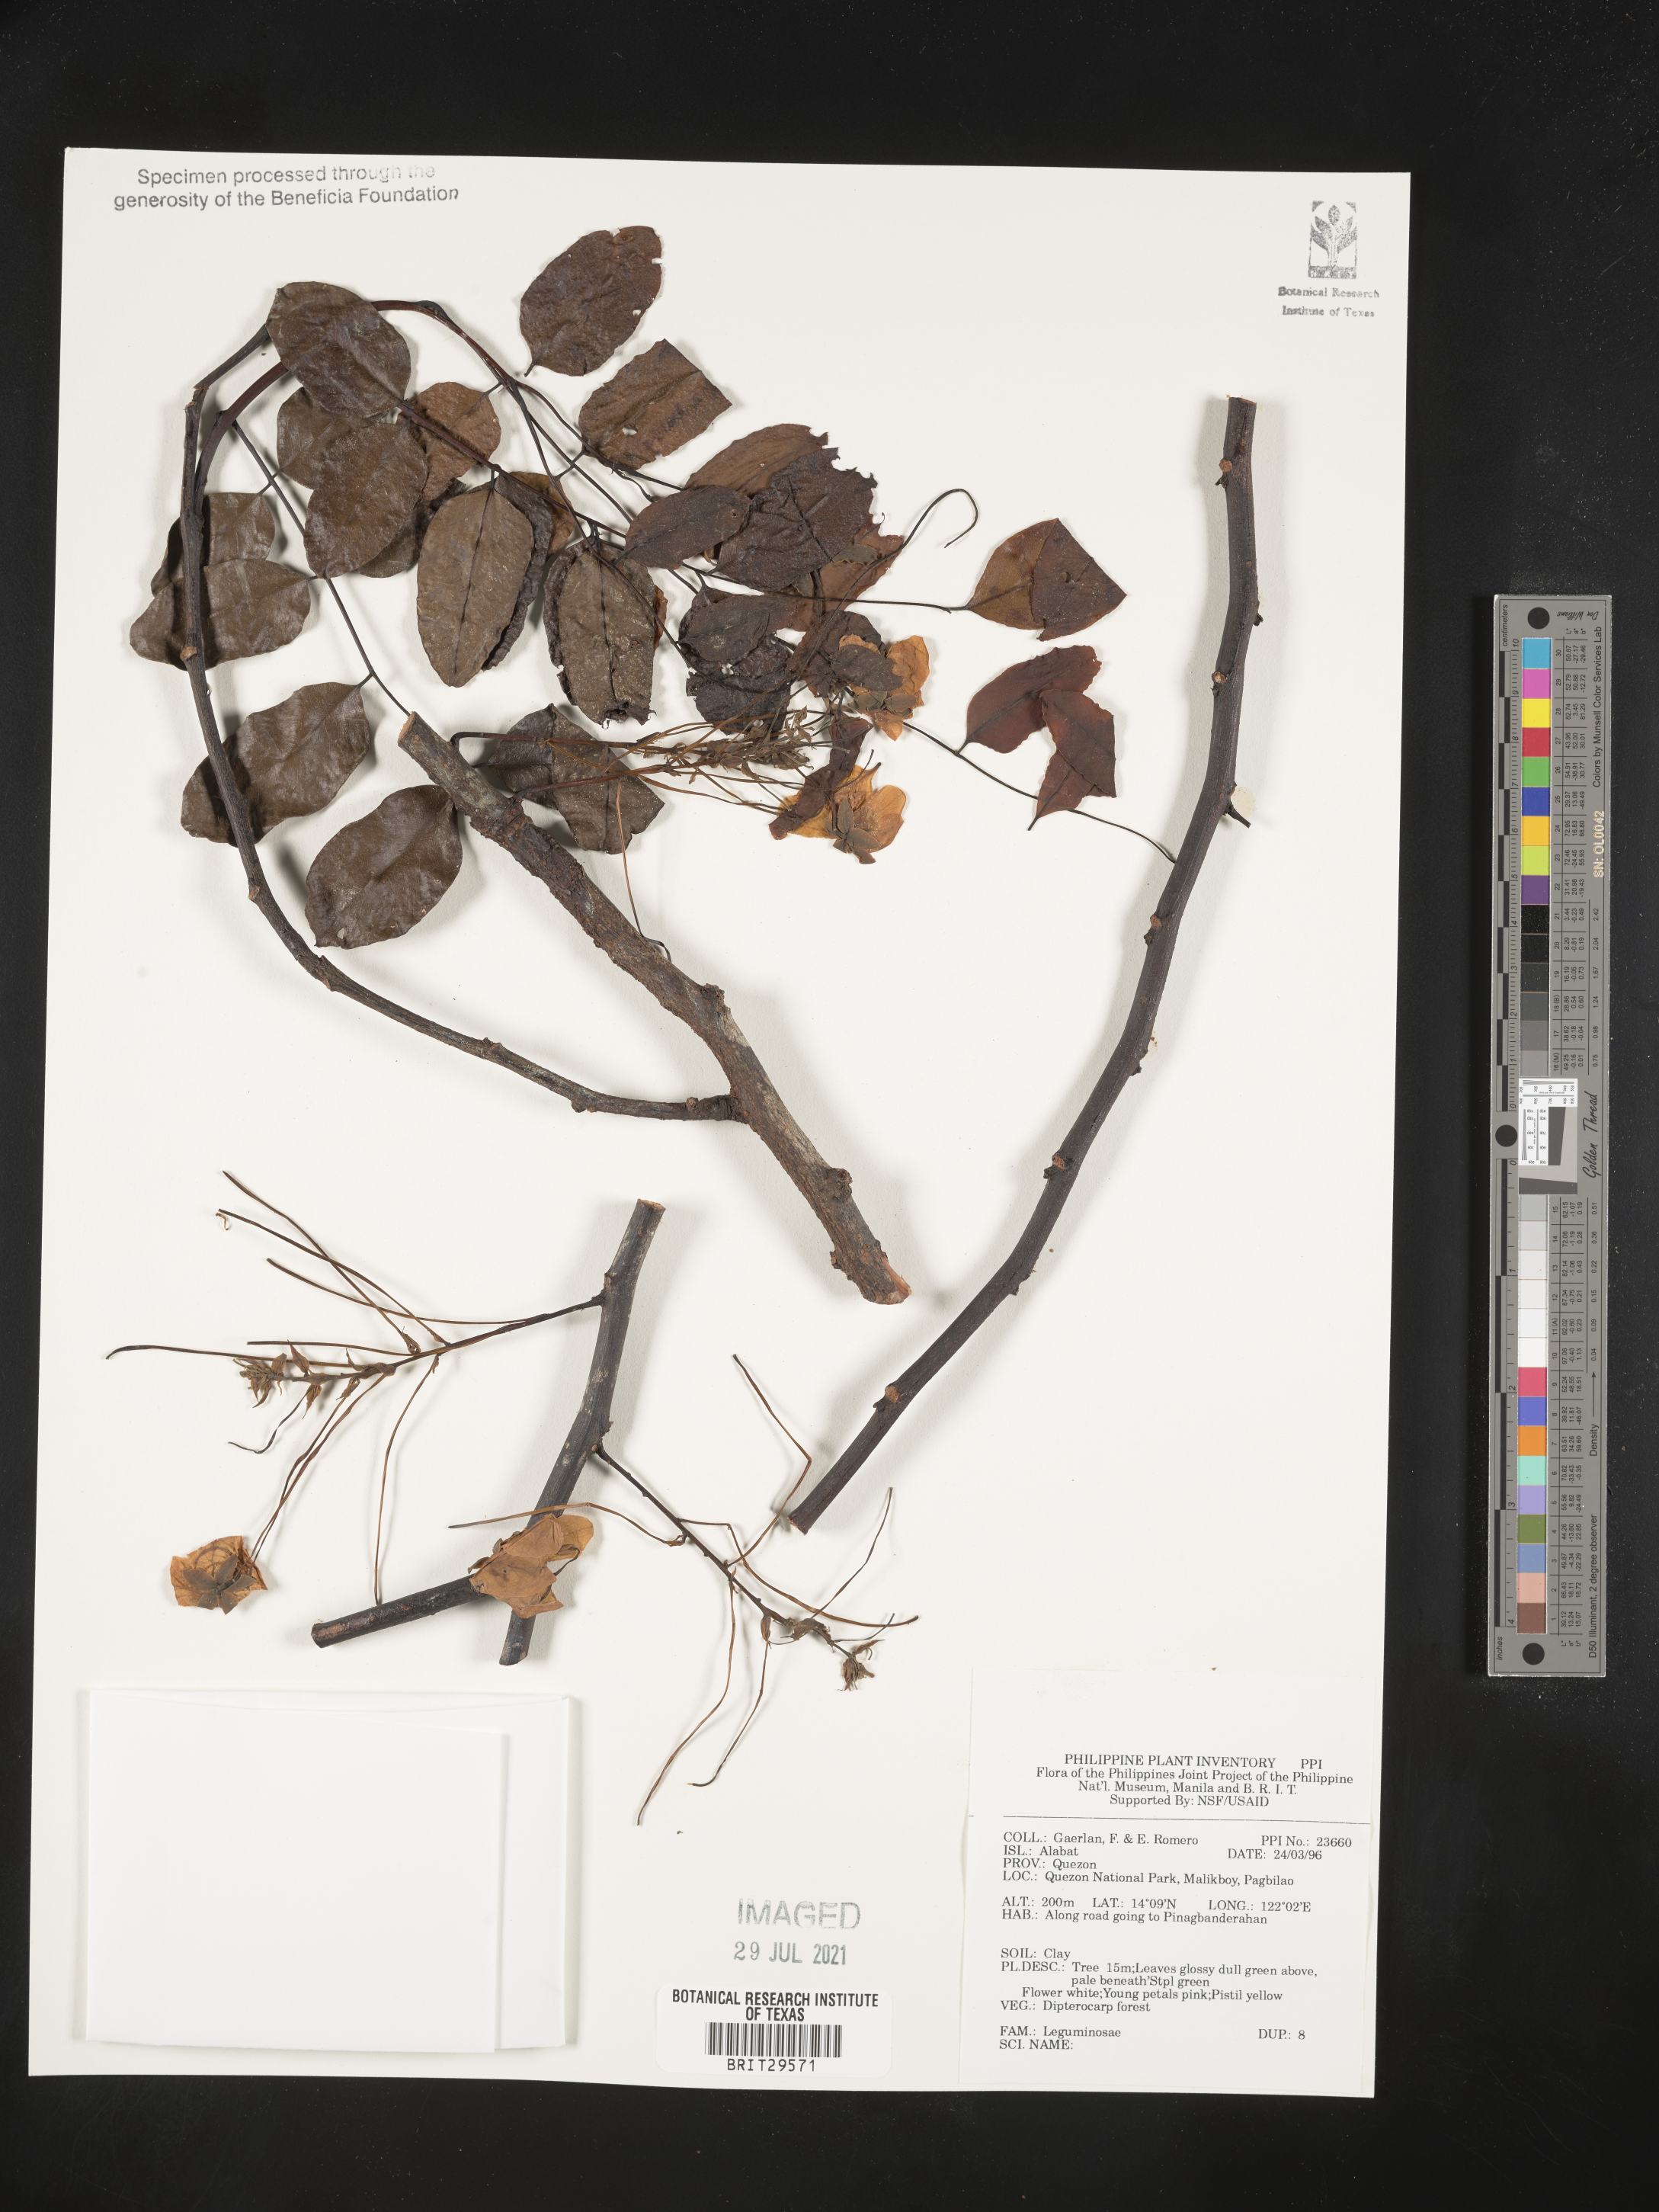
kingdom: Plantae
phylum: Tracheophyta
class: Magnoliopsida
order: Fabales
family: Fabaceae
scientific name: Fabaceae
